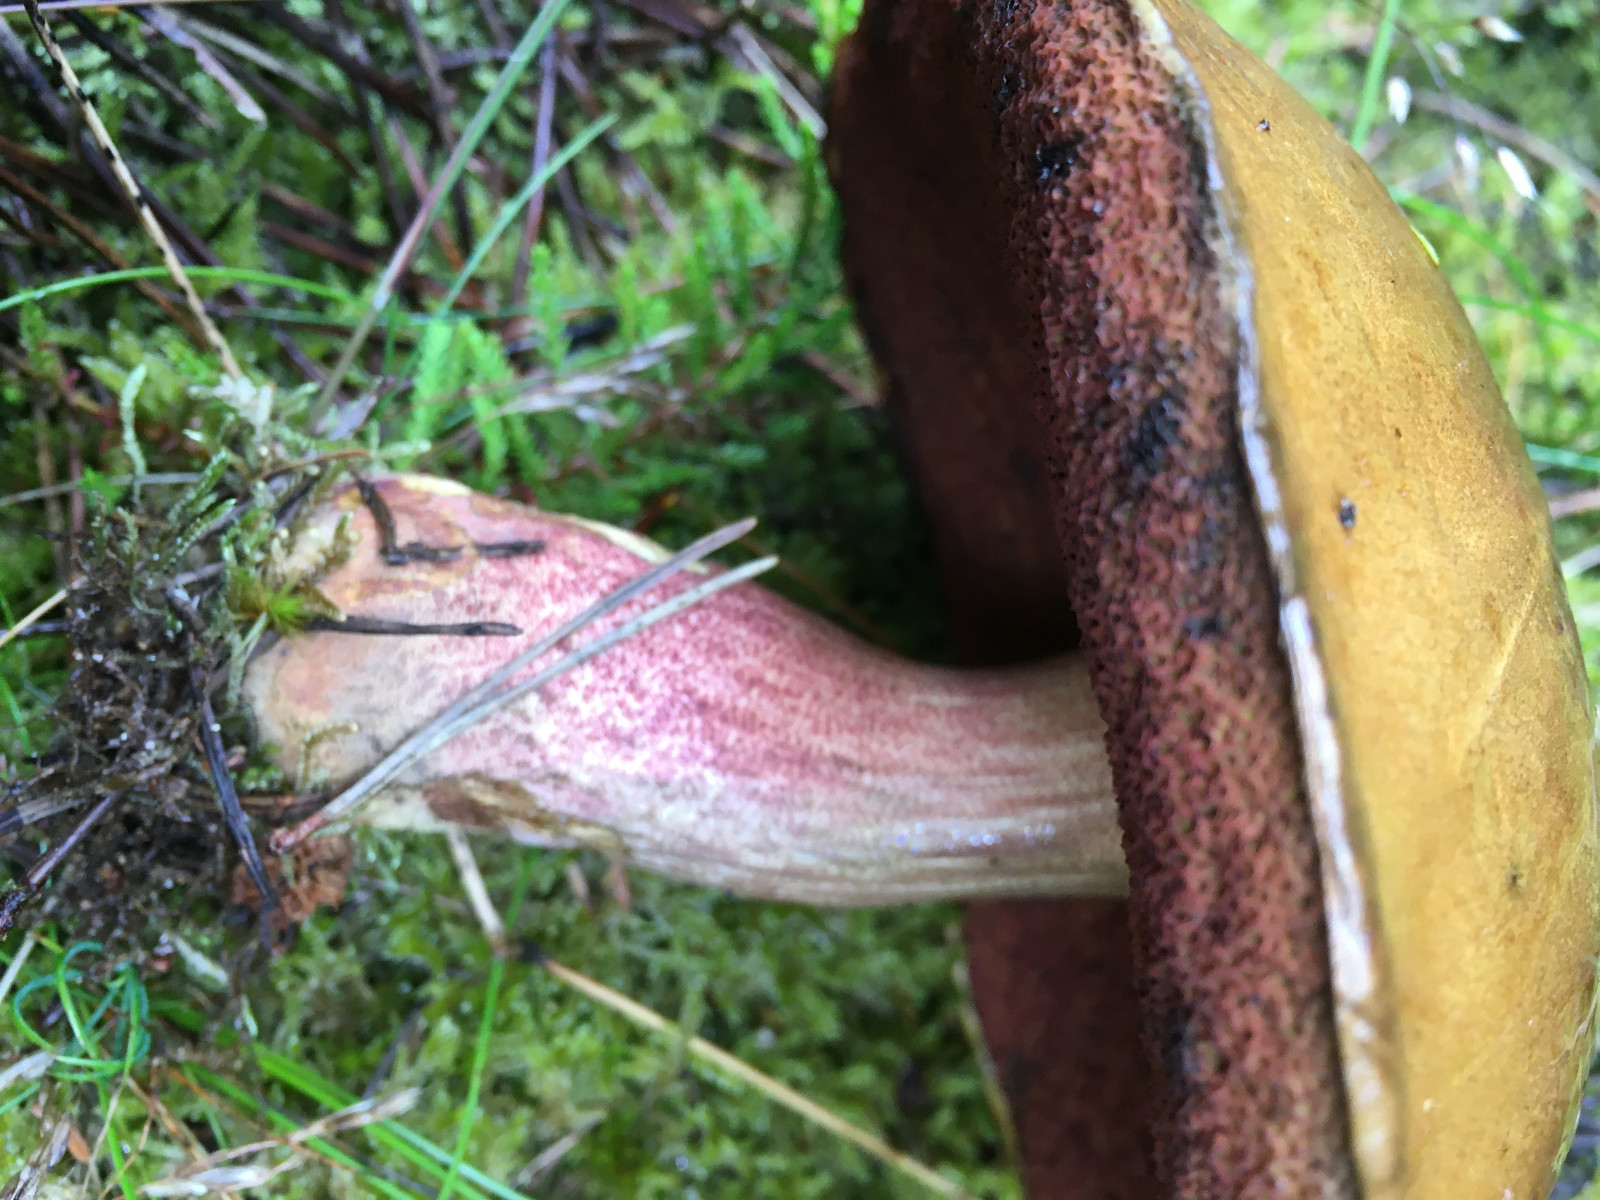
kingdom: Fungi
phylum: Basidiomycota
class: Agaricomycetes
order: Boletales
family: Boletaceae
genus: Neoboletus
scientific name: Neoboletus erythropus
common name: punktstokket indigorørhat
